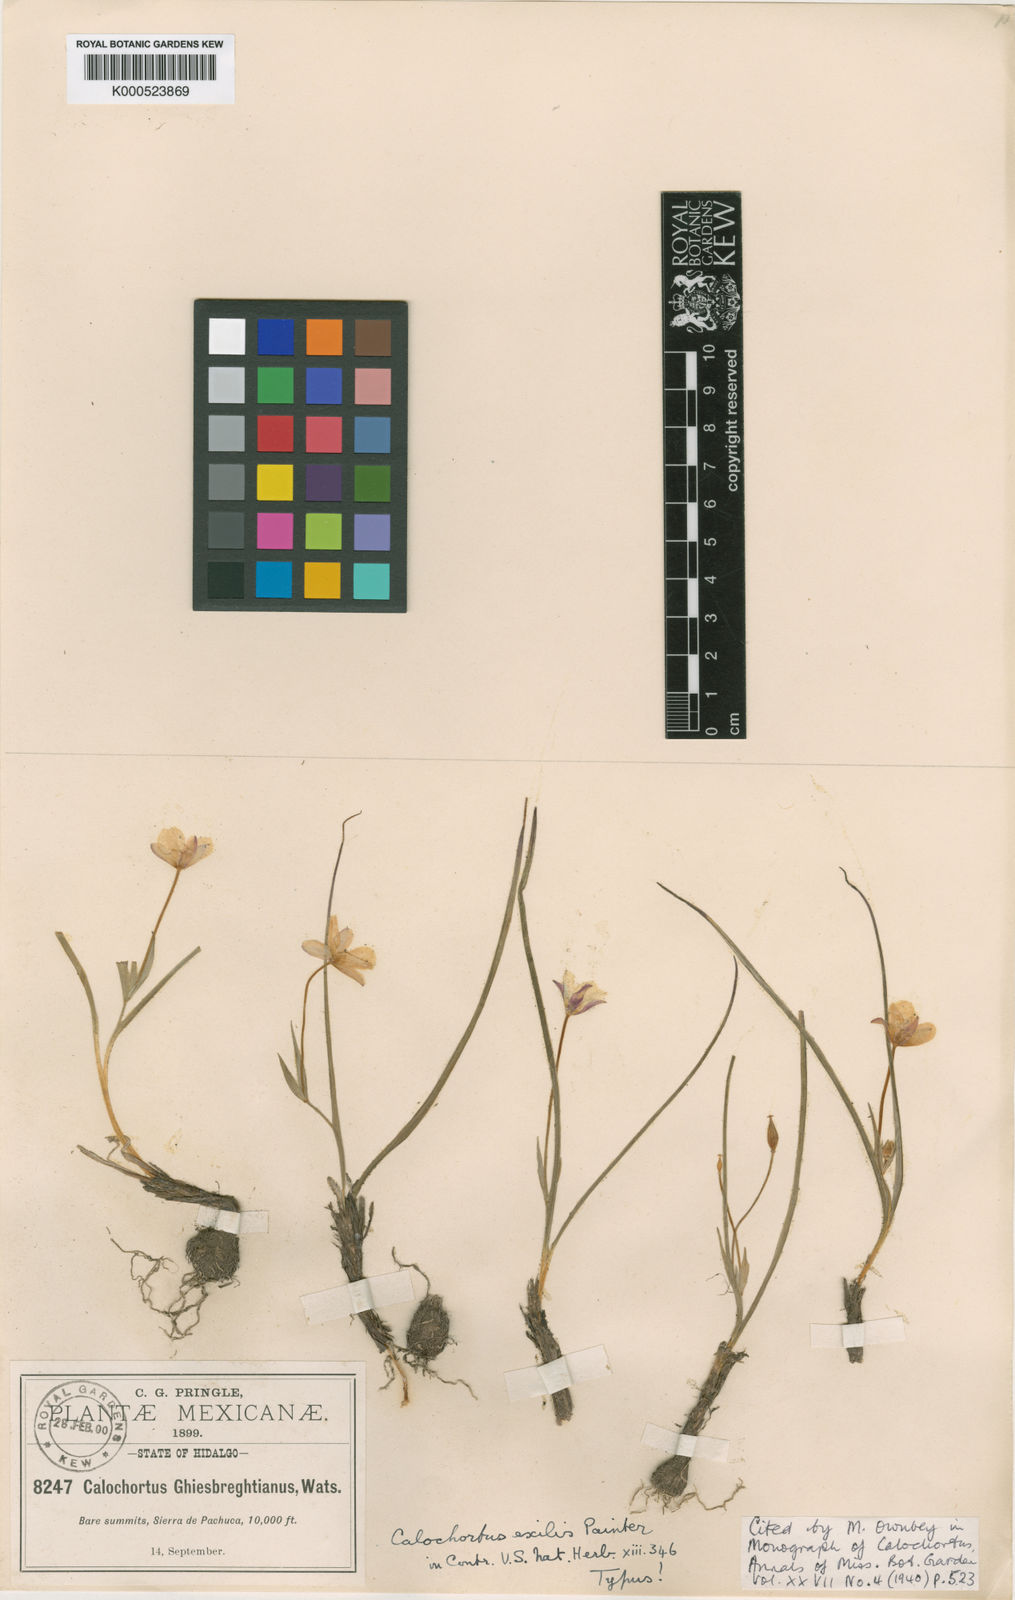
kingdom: Plantae
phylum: Tracheophyta
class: Liliopsida
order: Liliales
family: Liliaceae
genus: Calochortus
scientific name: Calochortus exilis
